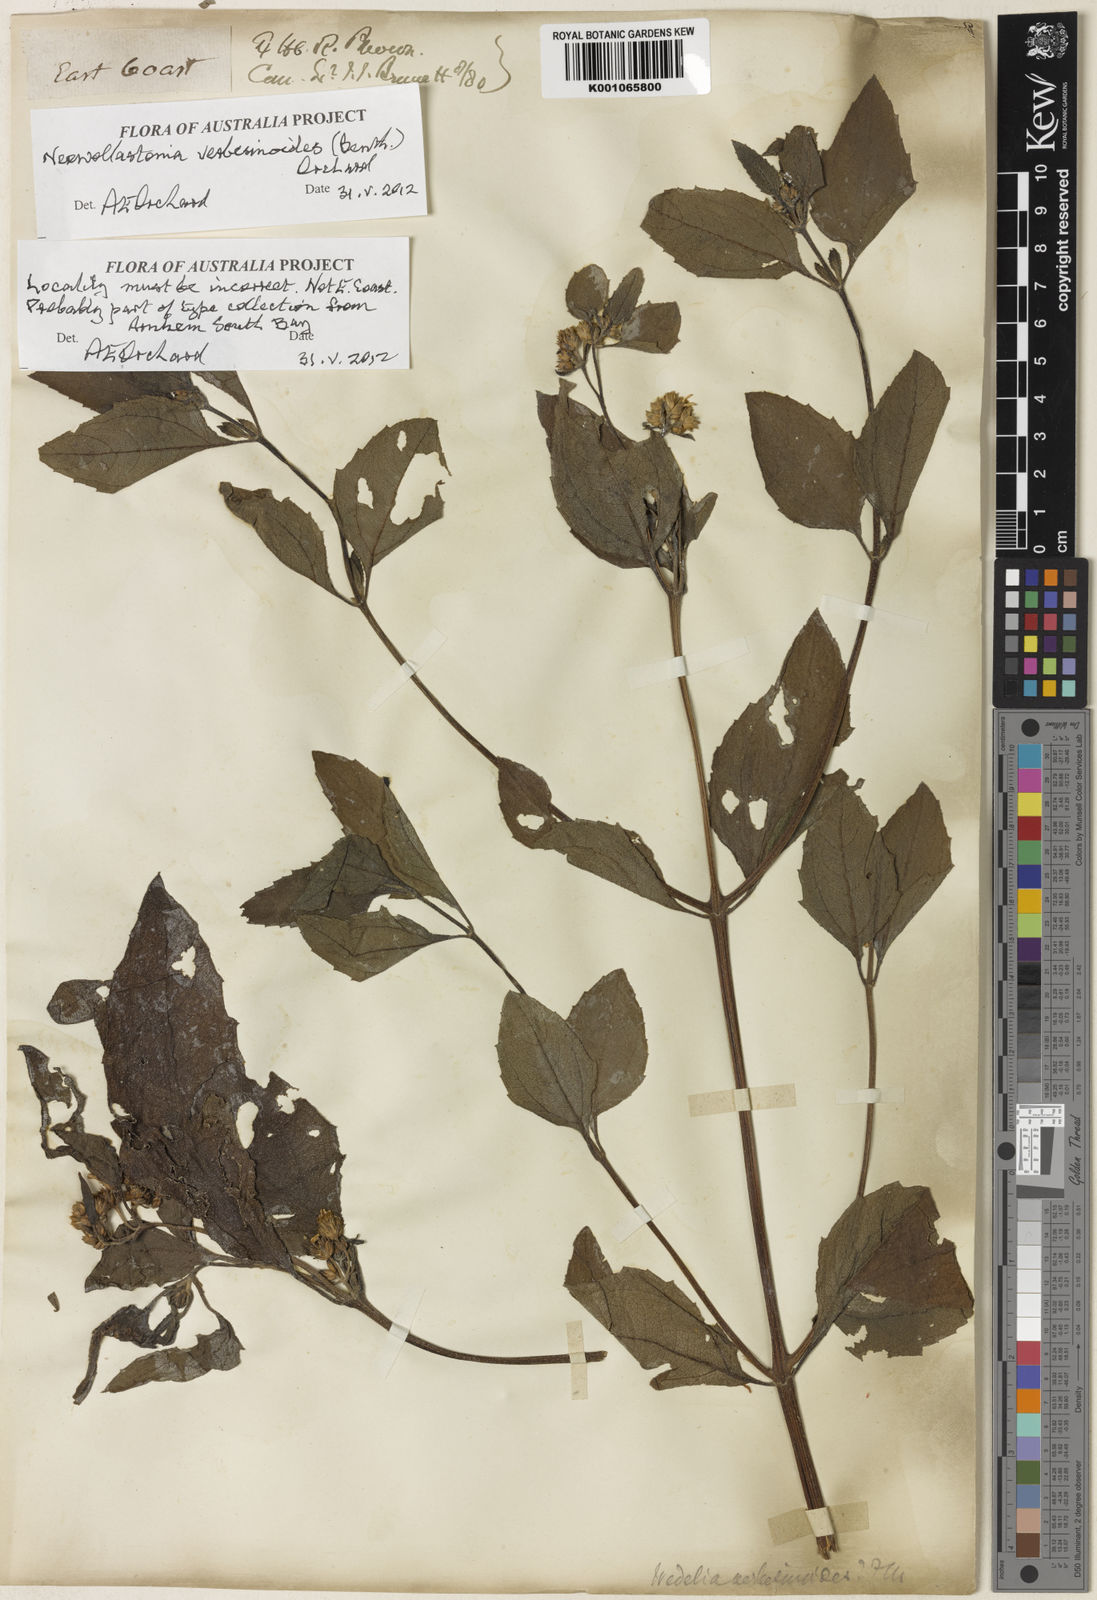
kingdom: Plantae
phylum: Tracheophyta
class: Magnoliopsida
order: Asterales
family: Asteraceae
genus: Apowollastonia
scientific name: Apowollastonia verbesinoides
